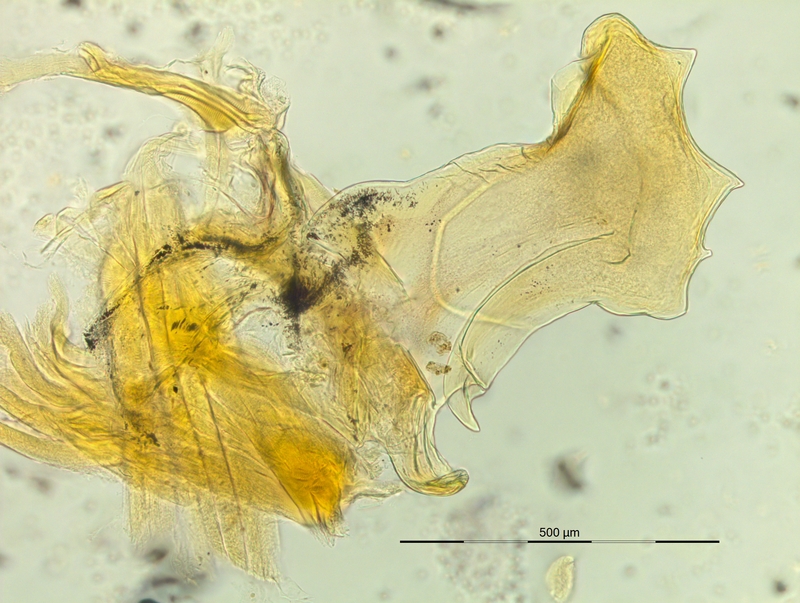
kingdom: Animalia
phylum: Arthropoda
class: Diplopoda
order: Chordeumatida
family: Craspedosomatidae
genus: Rhymogona
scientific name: Rhymogona wehrana
